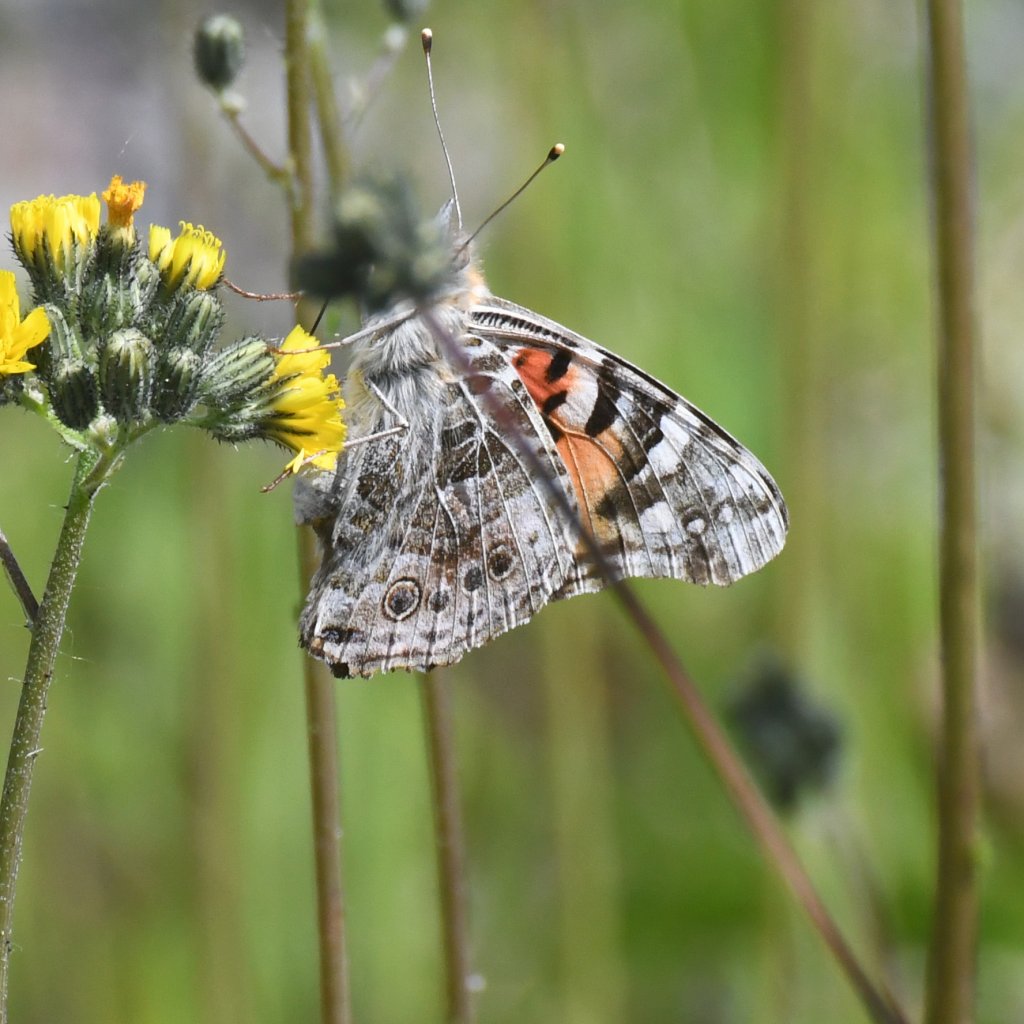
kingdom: Animalia
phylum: Arthropoda
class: Insecta
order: Lepidoptera
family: Nymphalidae
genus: Vanessa
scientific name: Vanessa cardui
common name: Painted Lady
